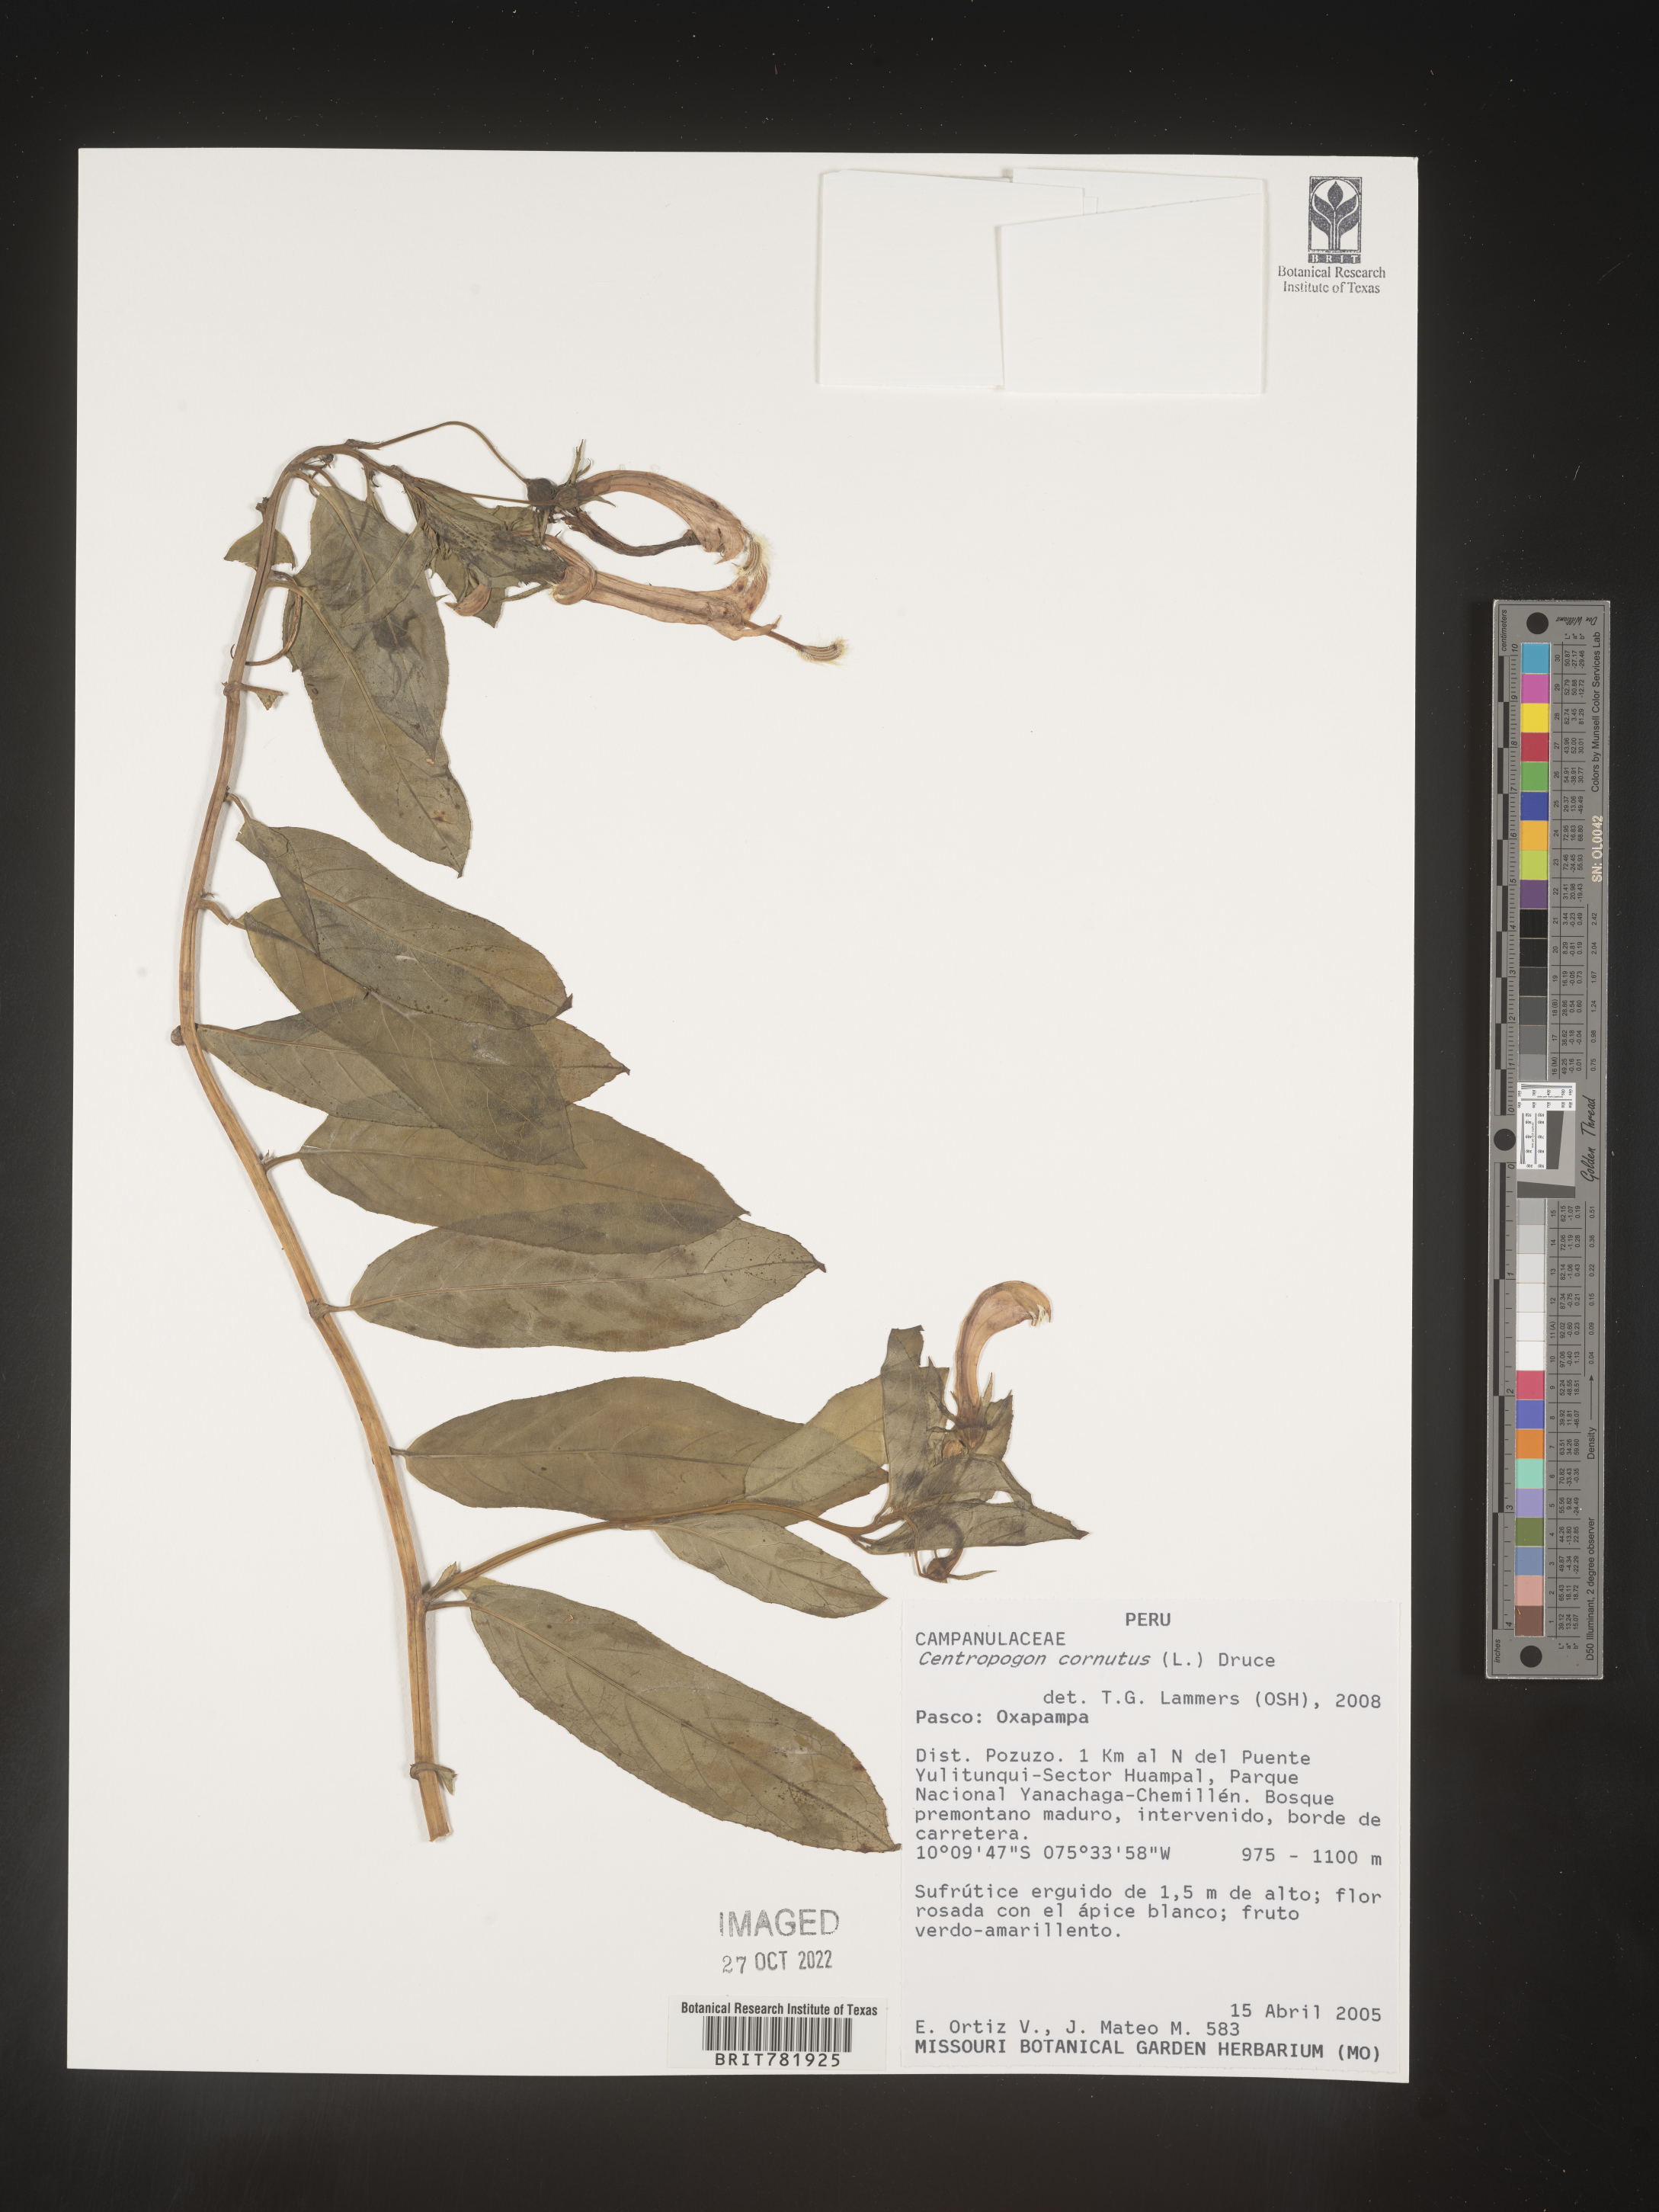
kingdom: Plantae
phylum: Tracheophyta
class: Magnoliopsida
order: Asterales
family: Campanulaceae
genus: Centropogon
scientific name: Centropogon
